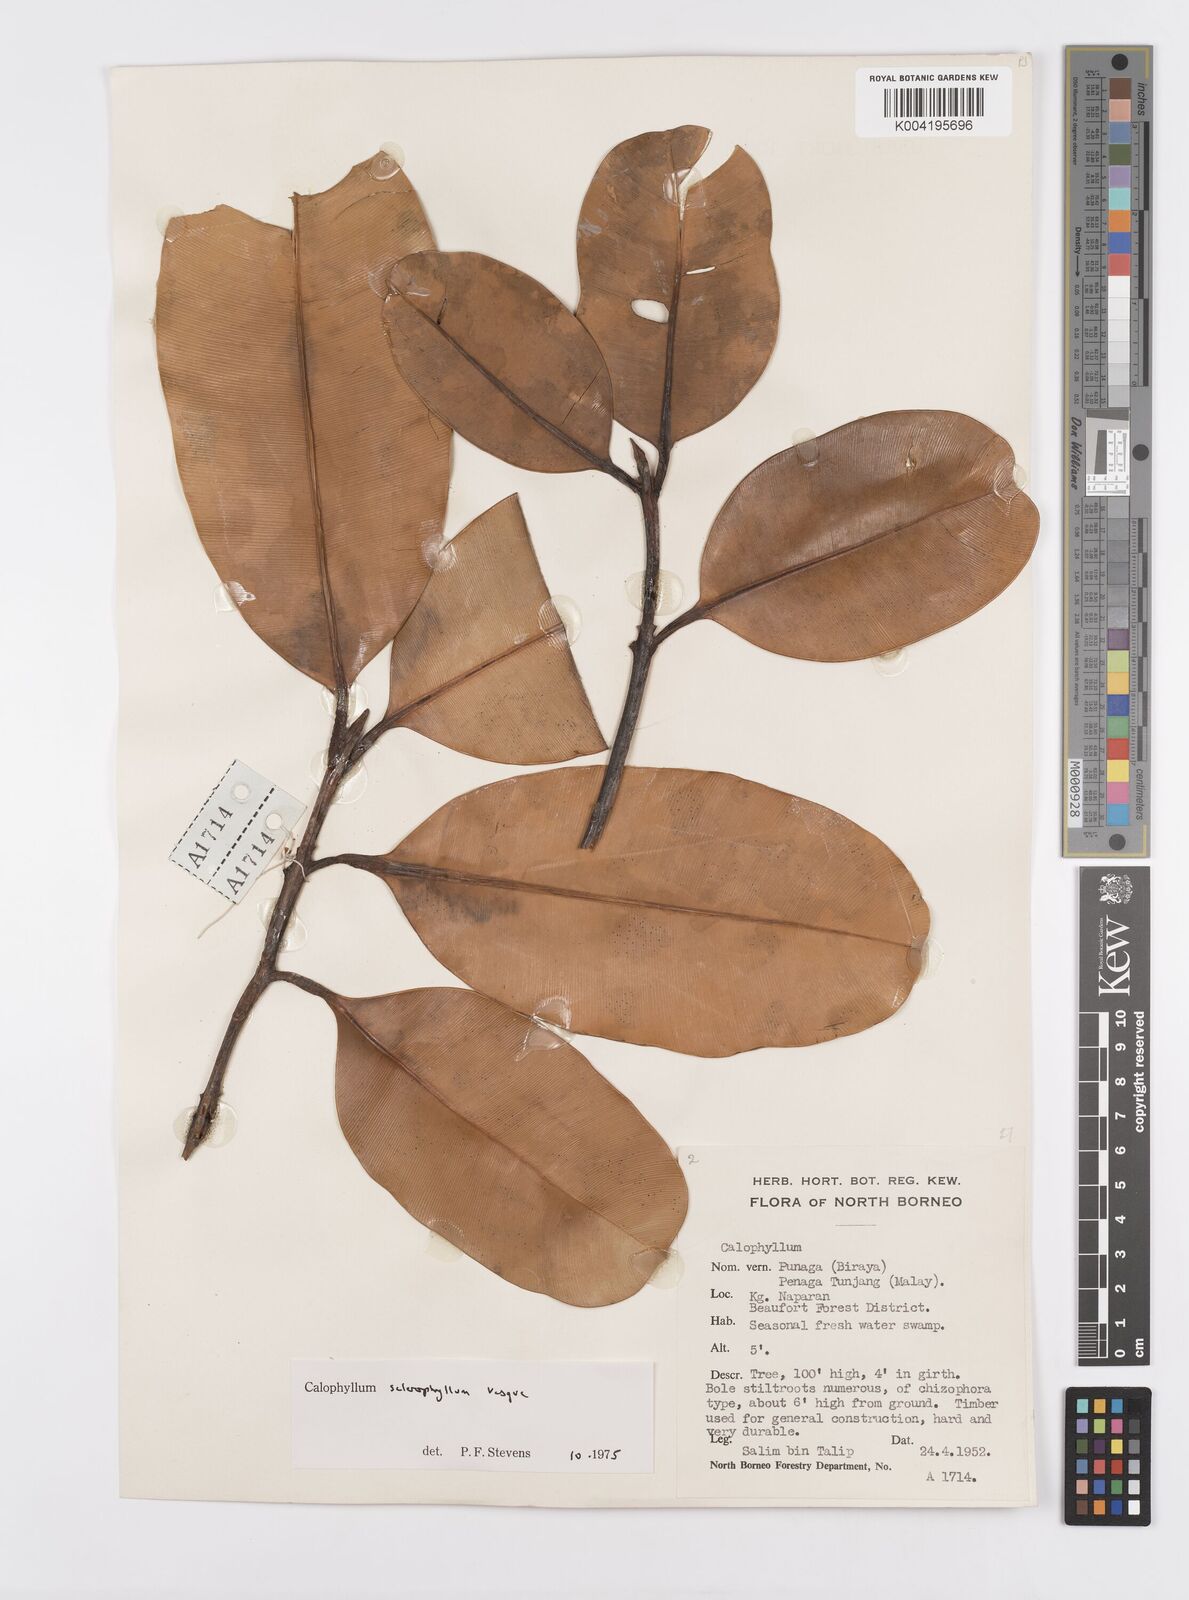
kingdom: Plantae
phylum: Tracheophyta
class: Magnoliopsida
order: Malpighiales
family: Calophyllaceae
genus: Calophyllum
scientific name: Calophyllum sclerophyllum
